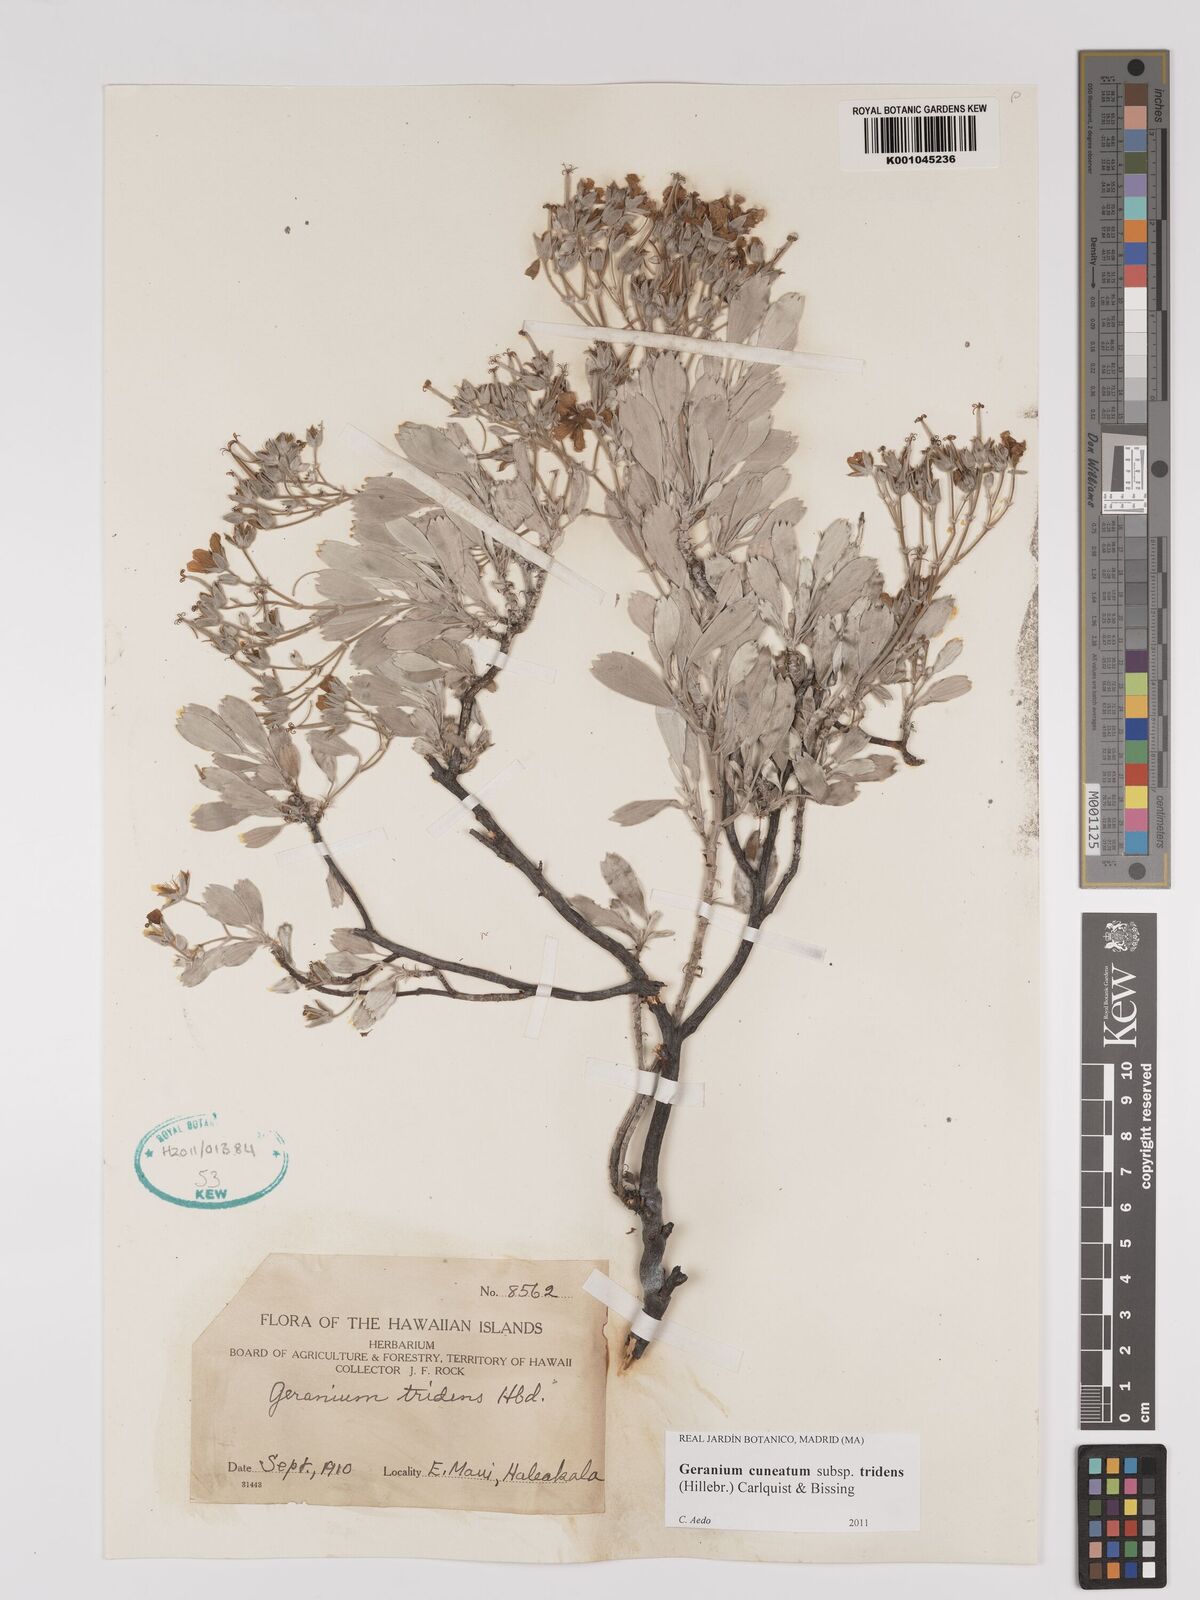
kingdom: Plantae
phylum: Tracheophyta
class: Magnoliopsida
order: Geraniales
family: Geraniaceae
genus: Geranium
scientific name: Geranium cuneatum
